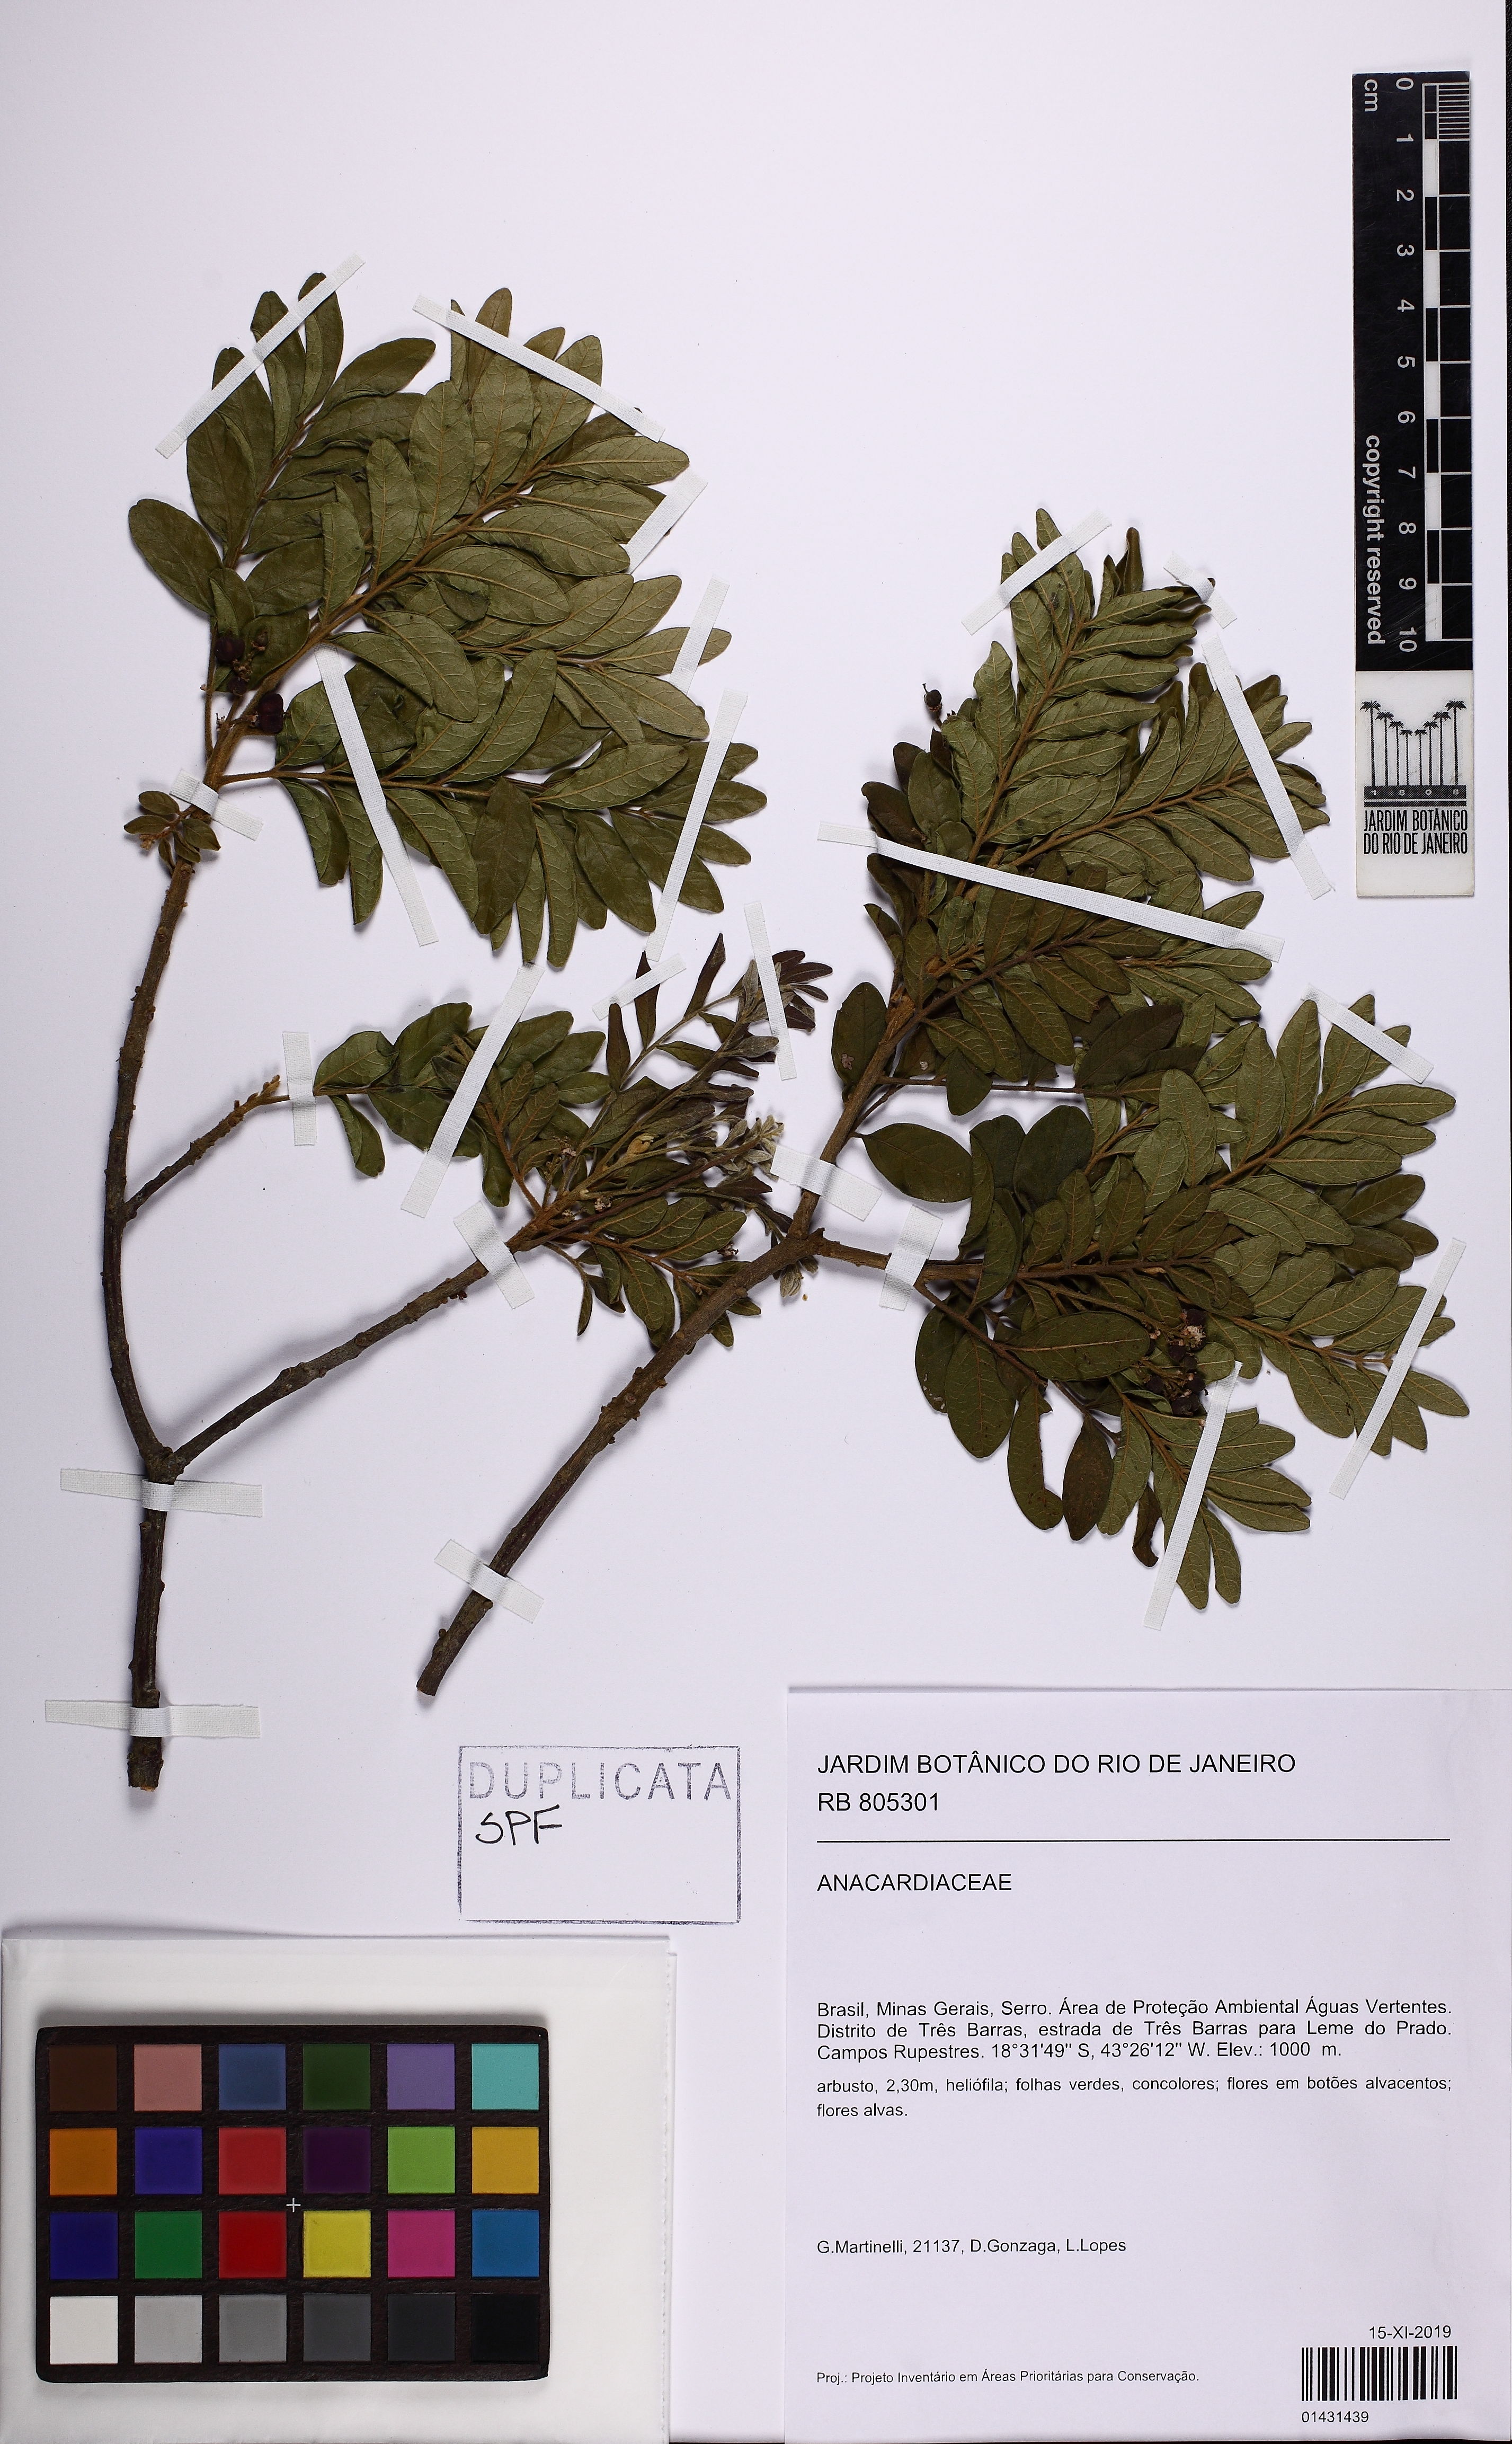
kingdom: Plantae
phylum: Tracheophyta
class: Magnoliopsida
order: Sapindales
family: Anacardiaceae
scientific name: Anacardiaceae
